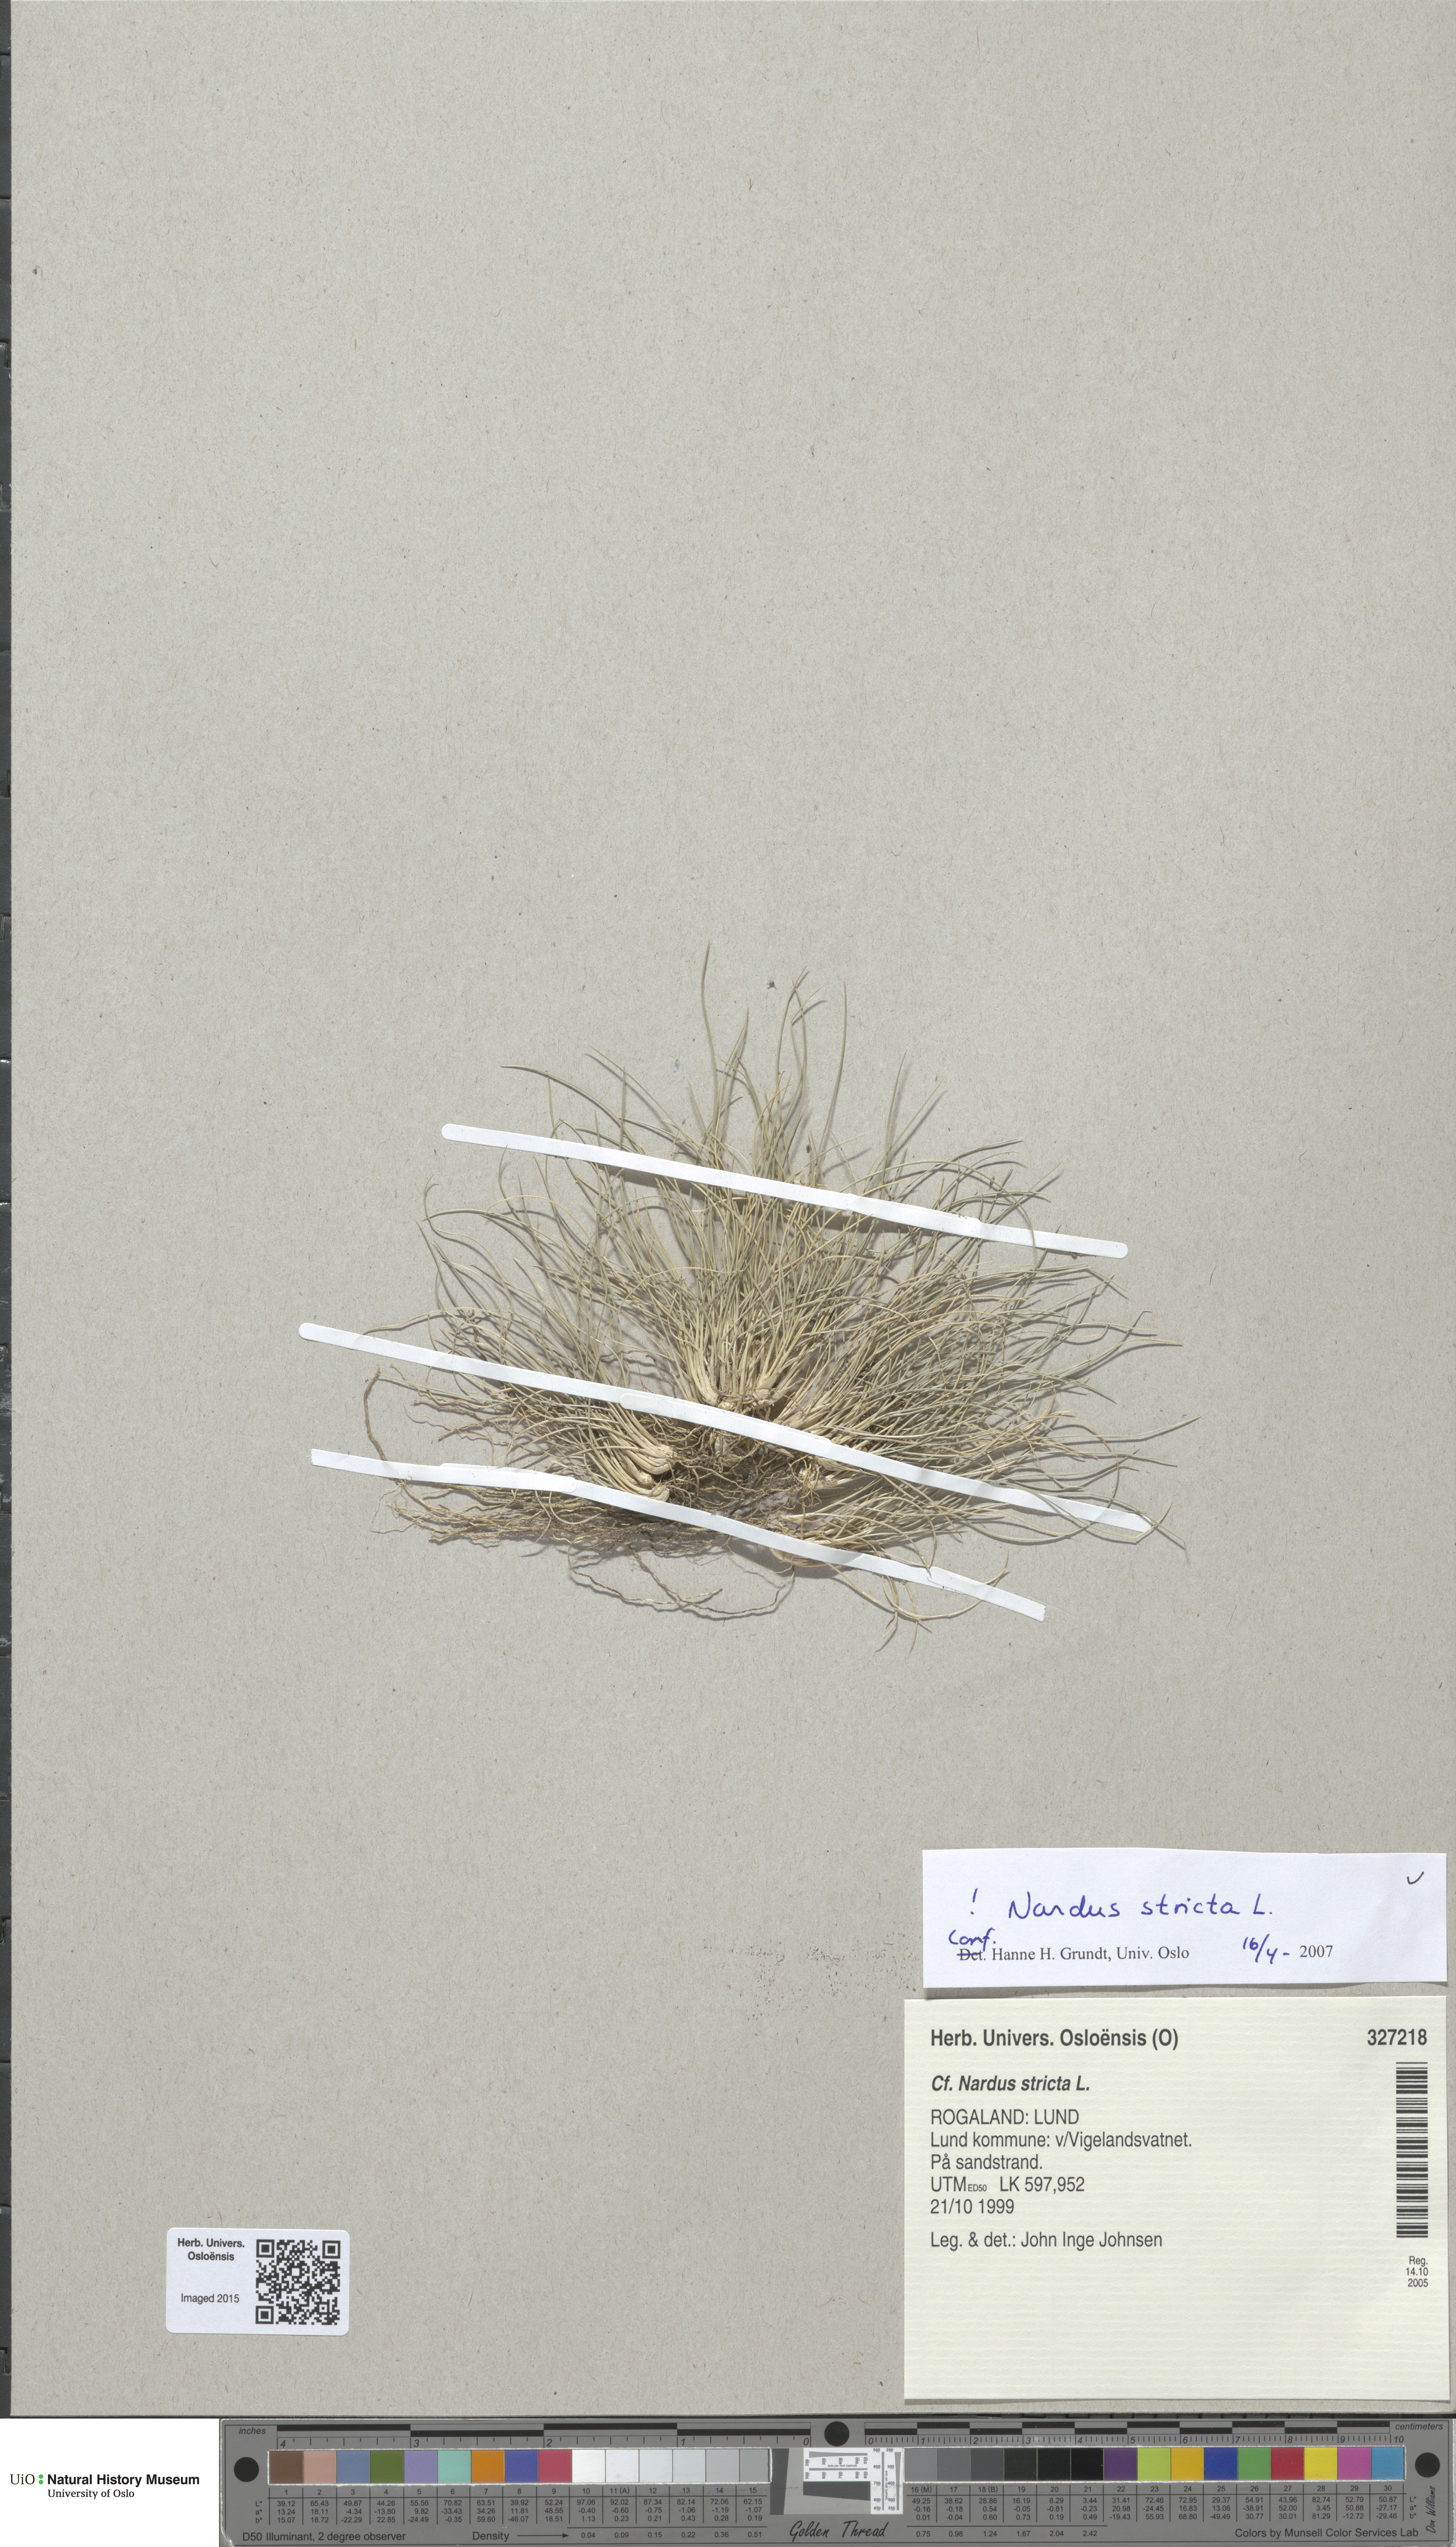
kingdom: Plantae
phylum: Tracheophyta
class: Liliopsida
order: Poales
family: Poaceae
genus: Nardus
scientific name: Nardus stricta
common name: Mat-grass
